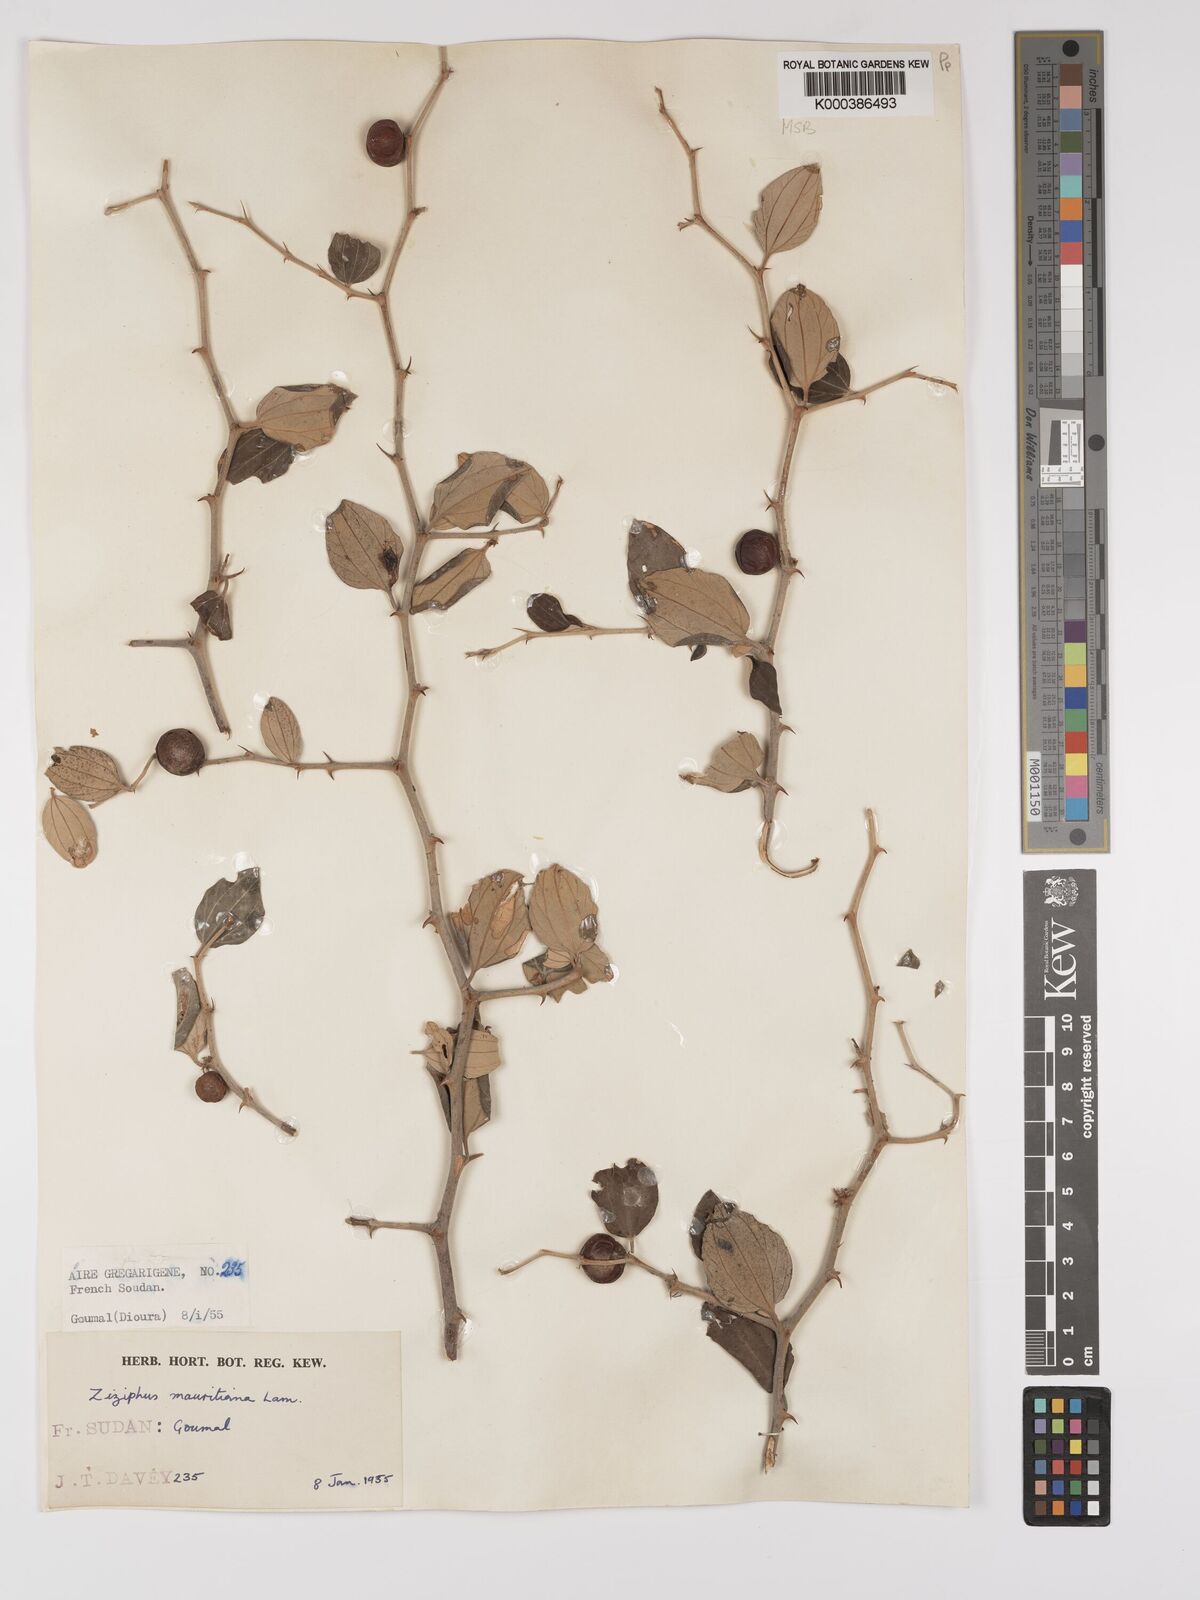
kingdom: Plantae
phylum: Tracheophyta
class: Magnoliopsida
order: Rosales
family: Rhamnaceae
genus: Ziziphus
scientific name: Ziziphus mauritiana
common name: Indian jujube
